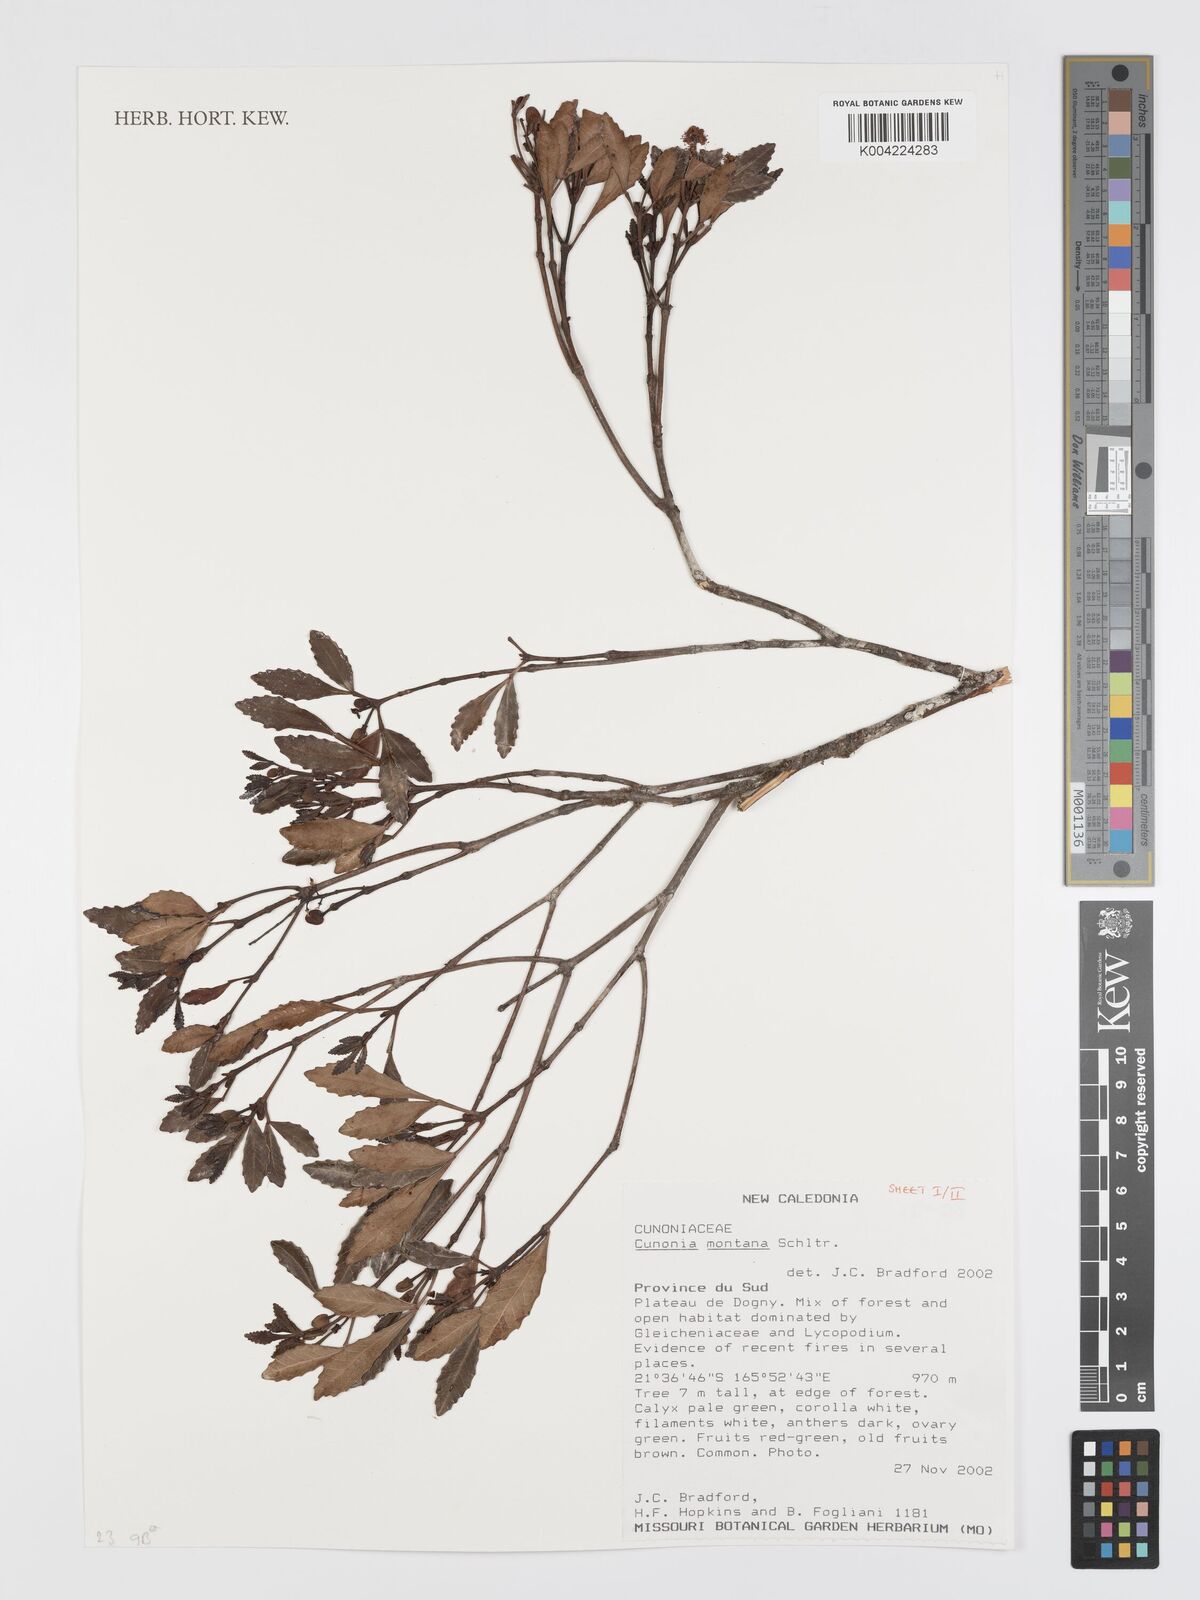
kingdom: Plantae
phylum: Tracheophyta
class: Magnoliopsida
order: Oxalidales
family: Cunoniaceae
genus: Cunonia
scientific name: Cunonia montana
